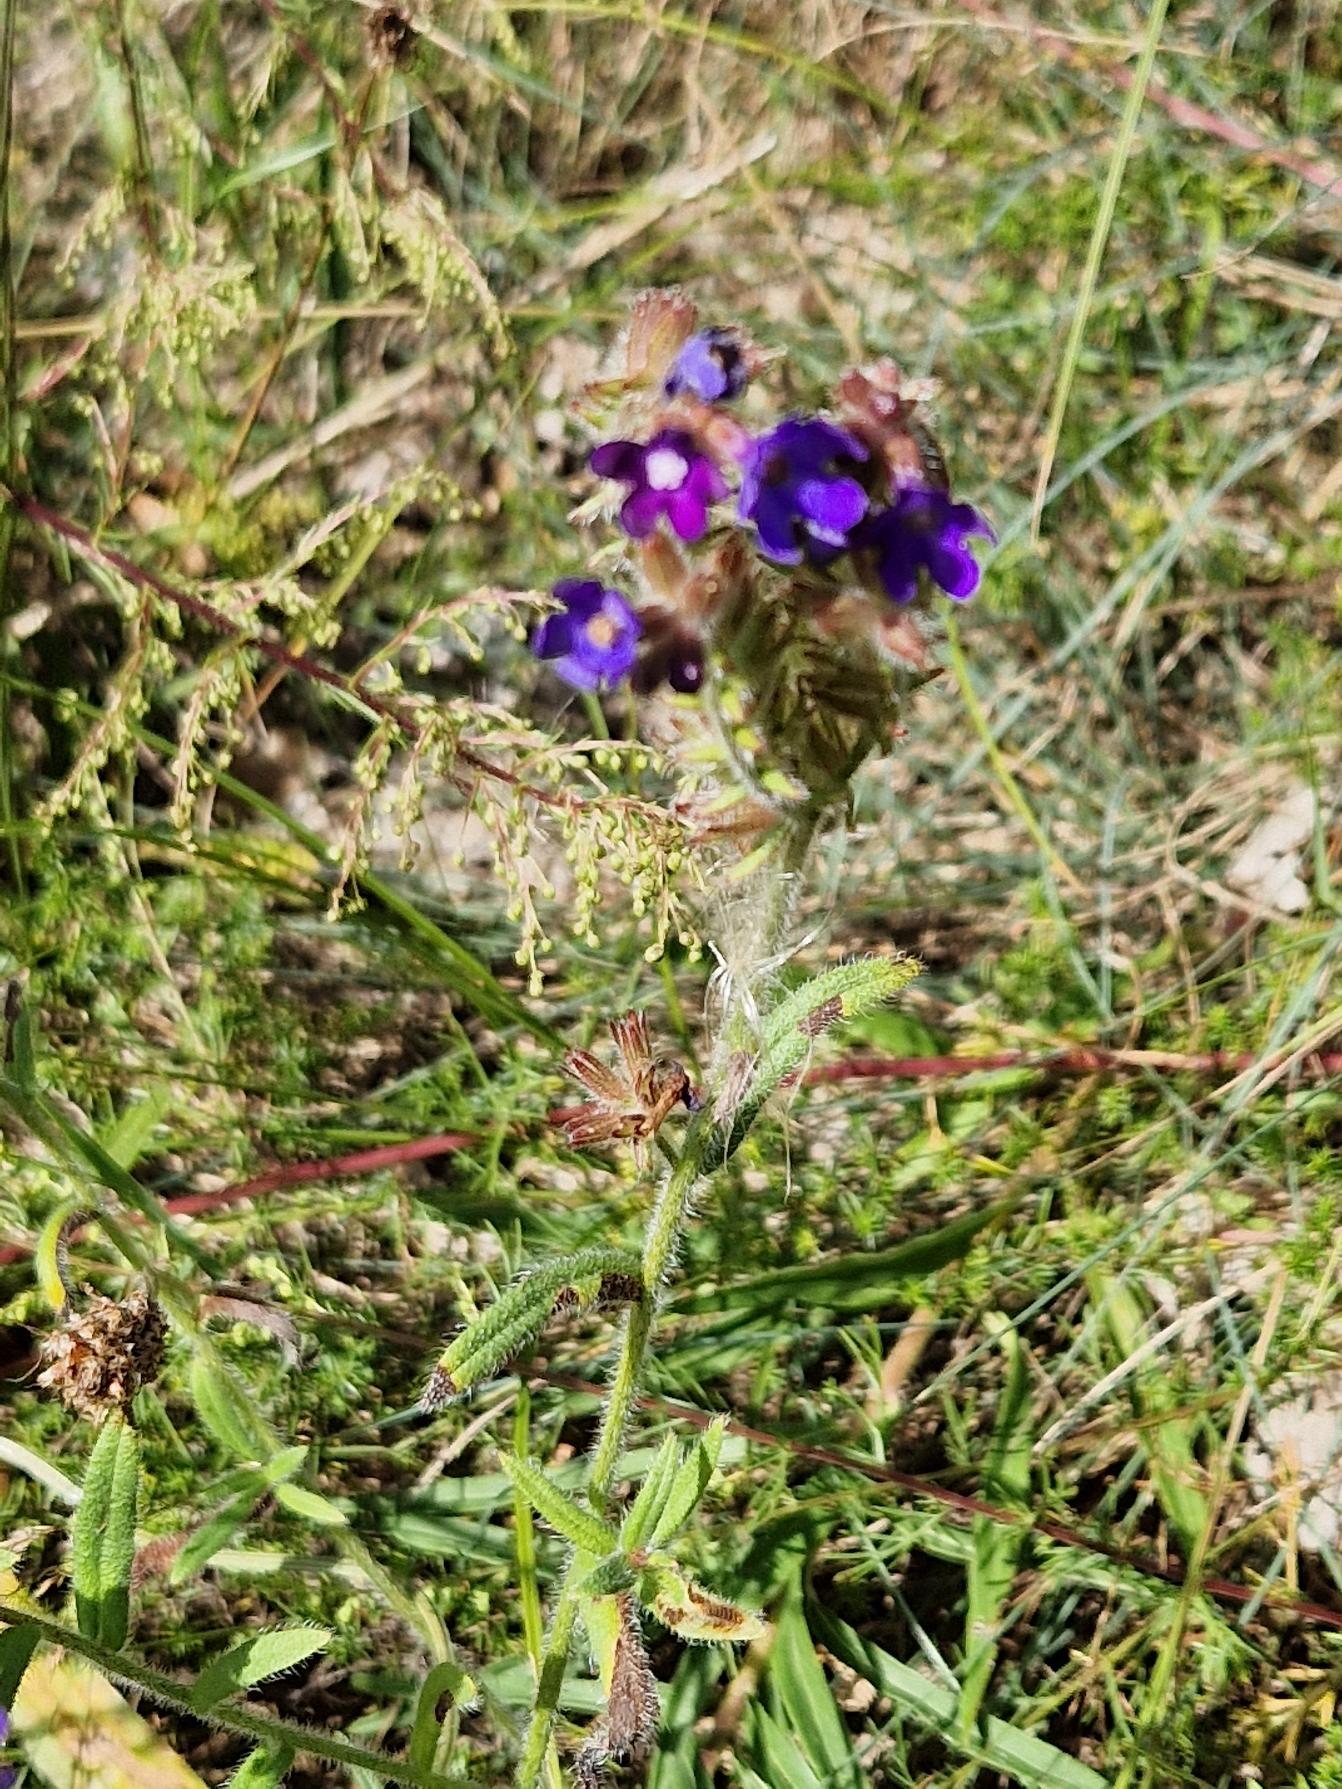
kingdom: Plantae
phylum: Tracheophyta
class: Magnoliopsida
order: Boraginales
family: Boraginaceae
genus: Anchusa
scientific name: Anchusa officinalis
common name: Læge-oksetunge
